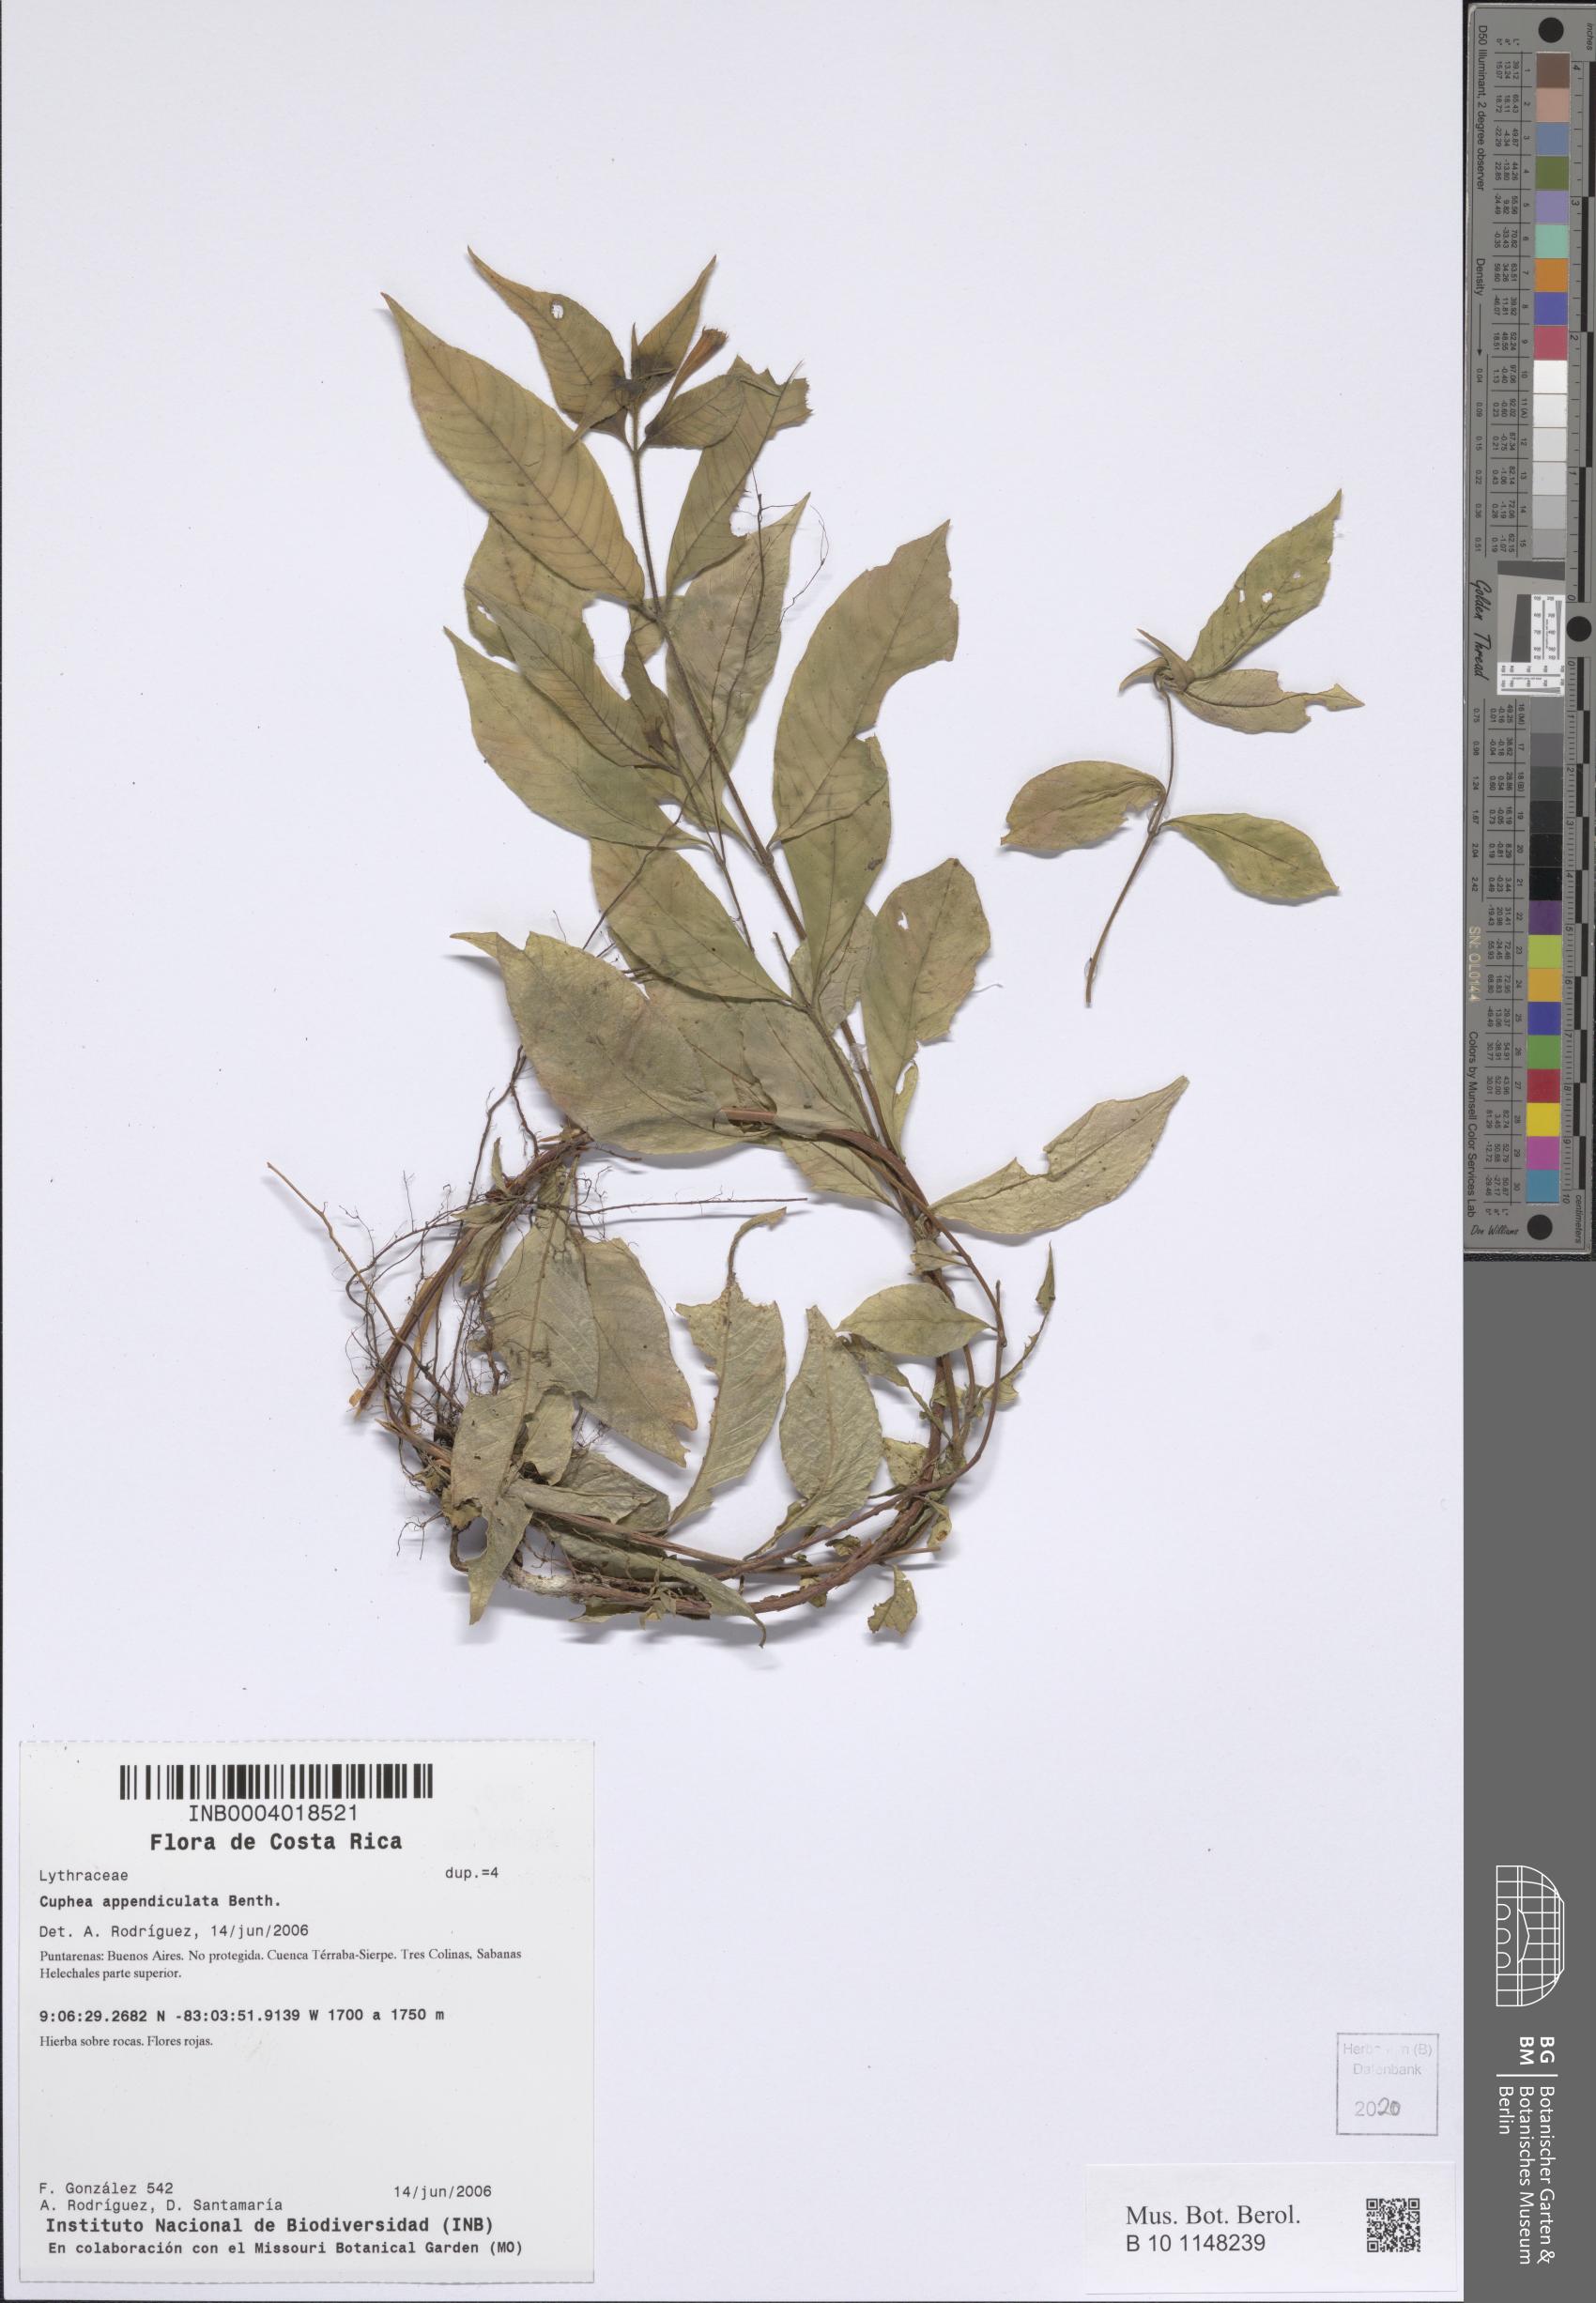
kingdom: Plantae
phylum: Tracheophyta
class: Magnoliopsida
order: Myrtales
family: Lythraceae
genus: Cuphea
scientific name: Cuphea appendiculata
